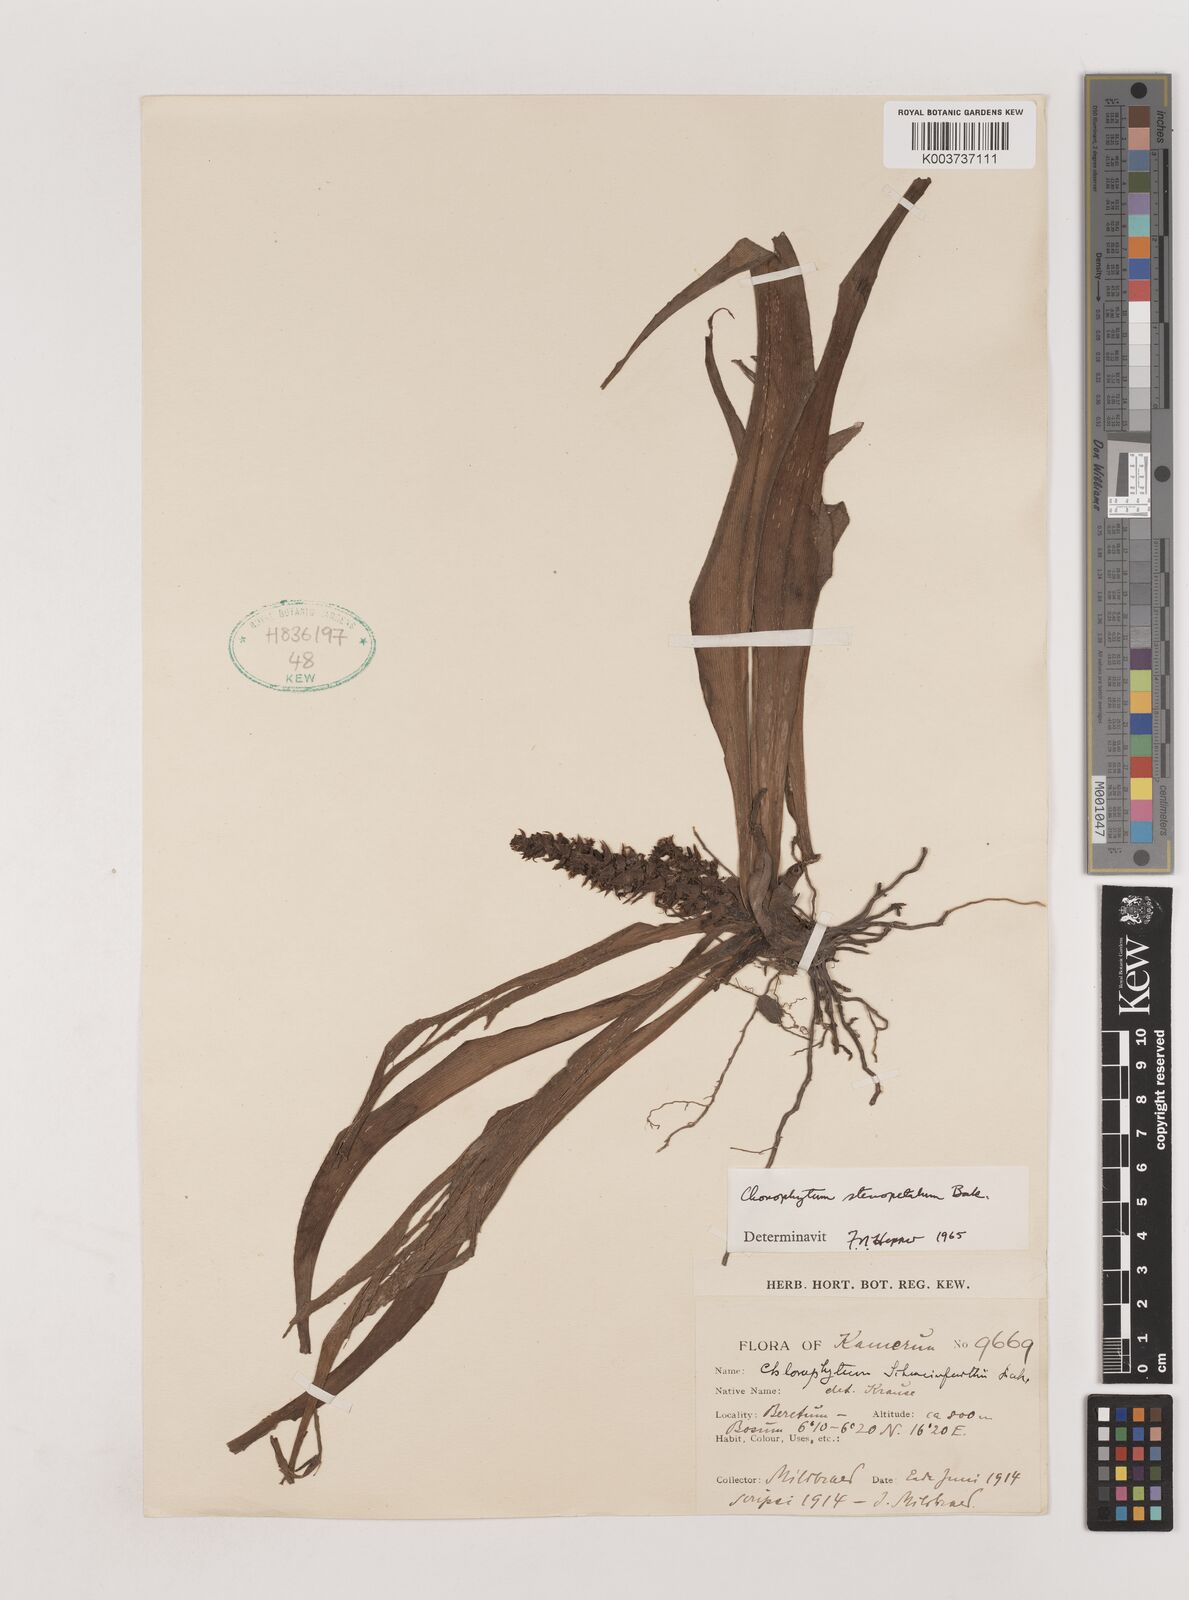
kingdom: Plantae
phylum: Tracheophyta
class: Liliopsida
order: Asparagales
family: Asparagaceae
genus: Chlorophytum
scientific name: Chlorophytum stenopetalum
